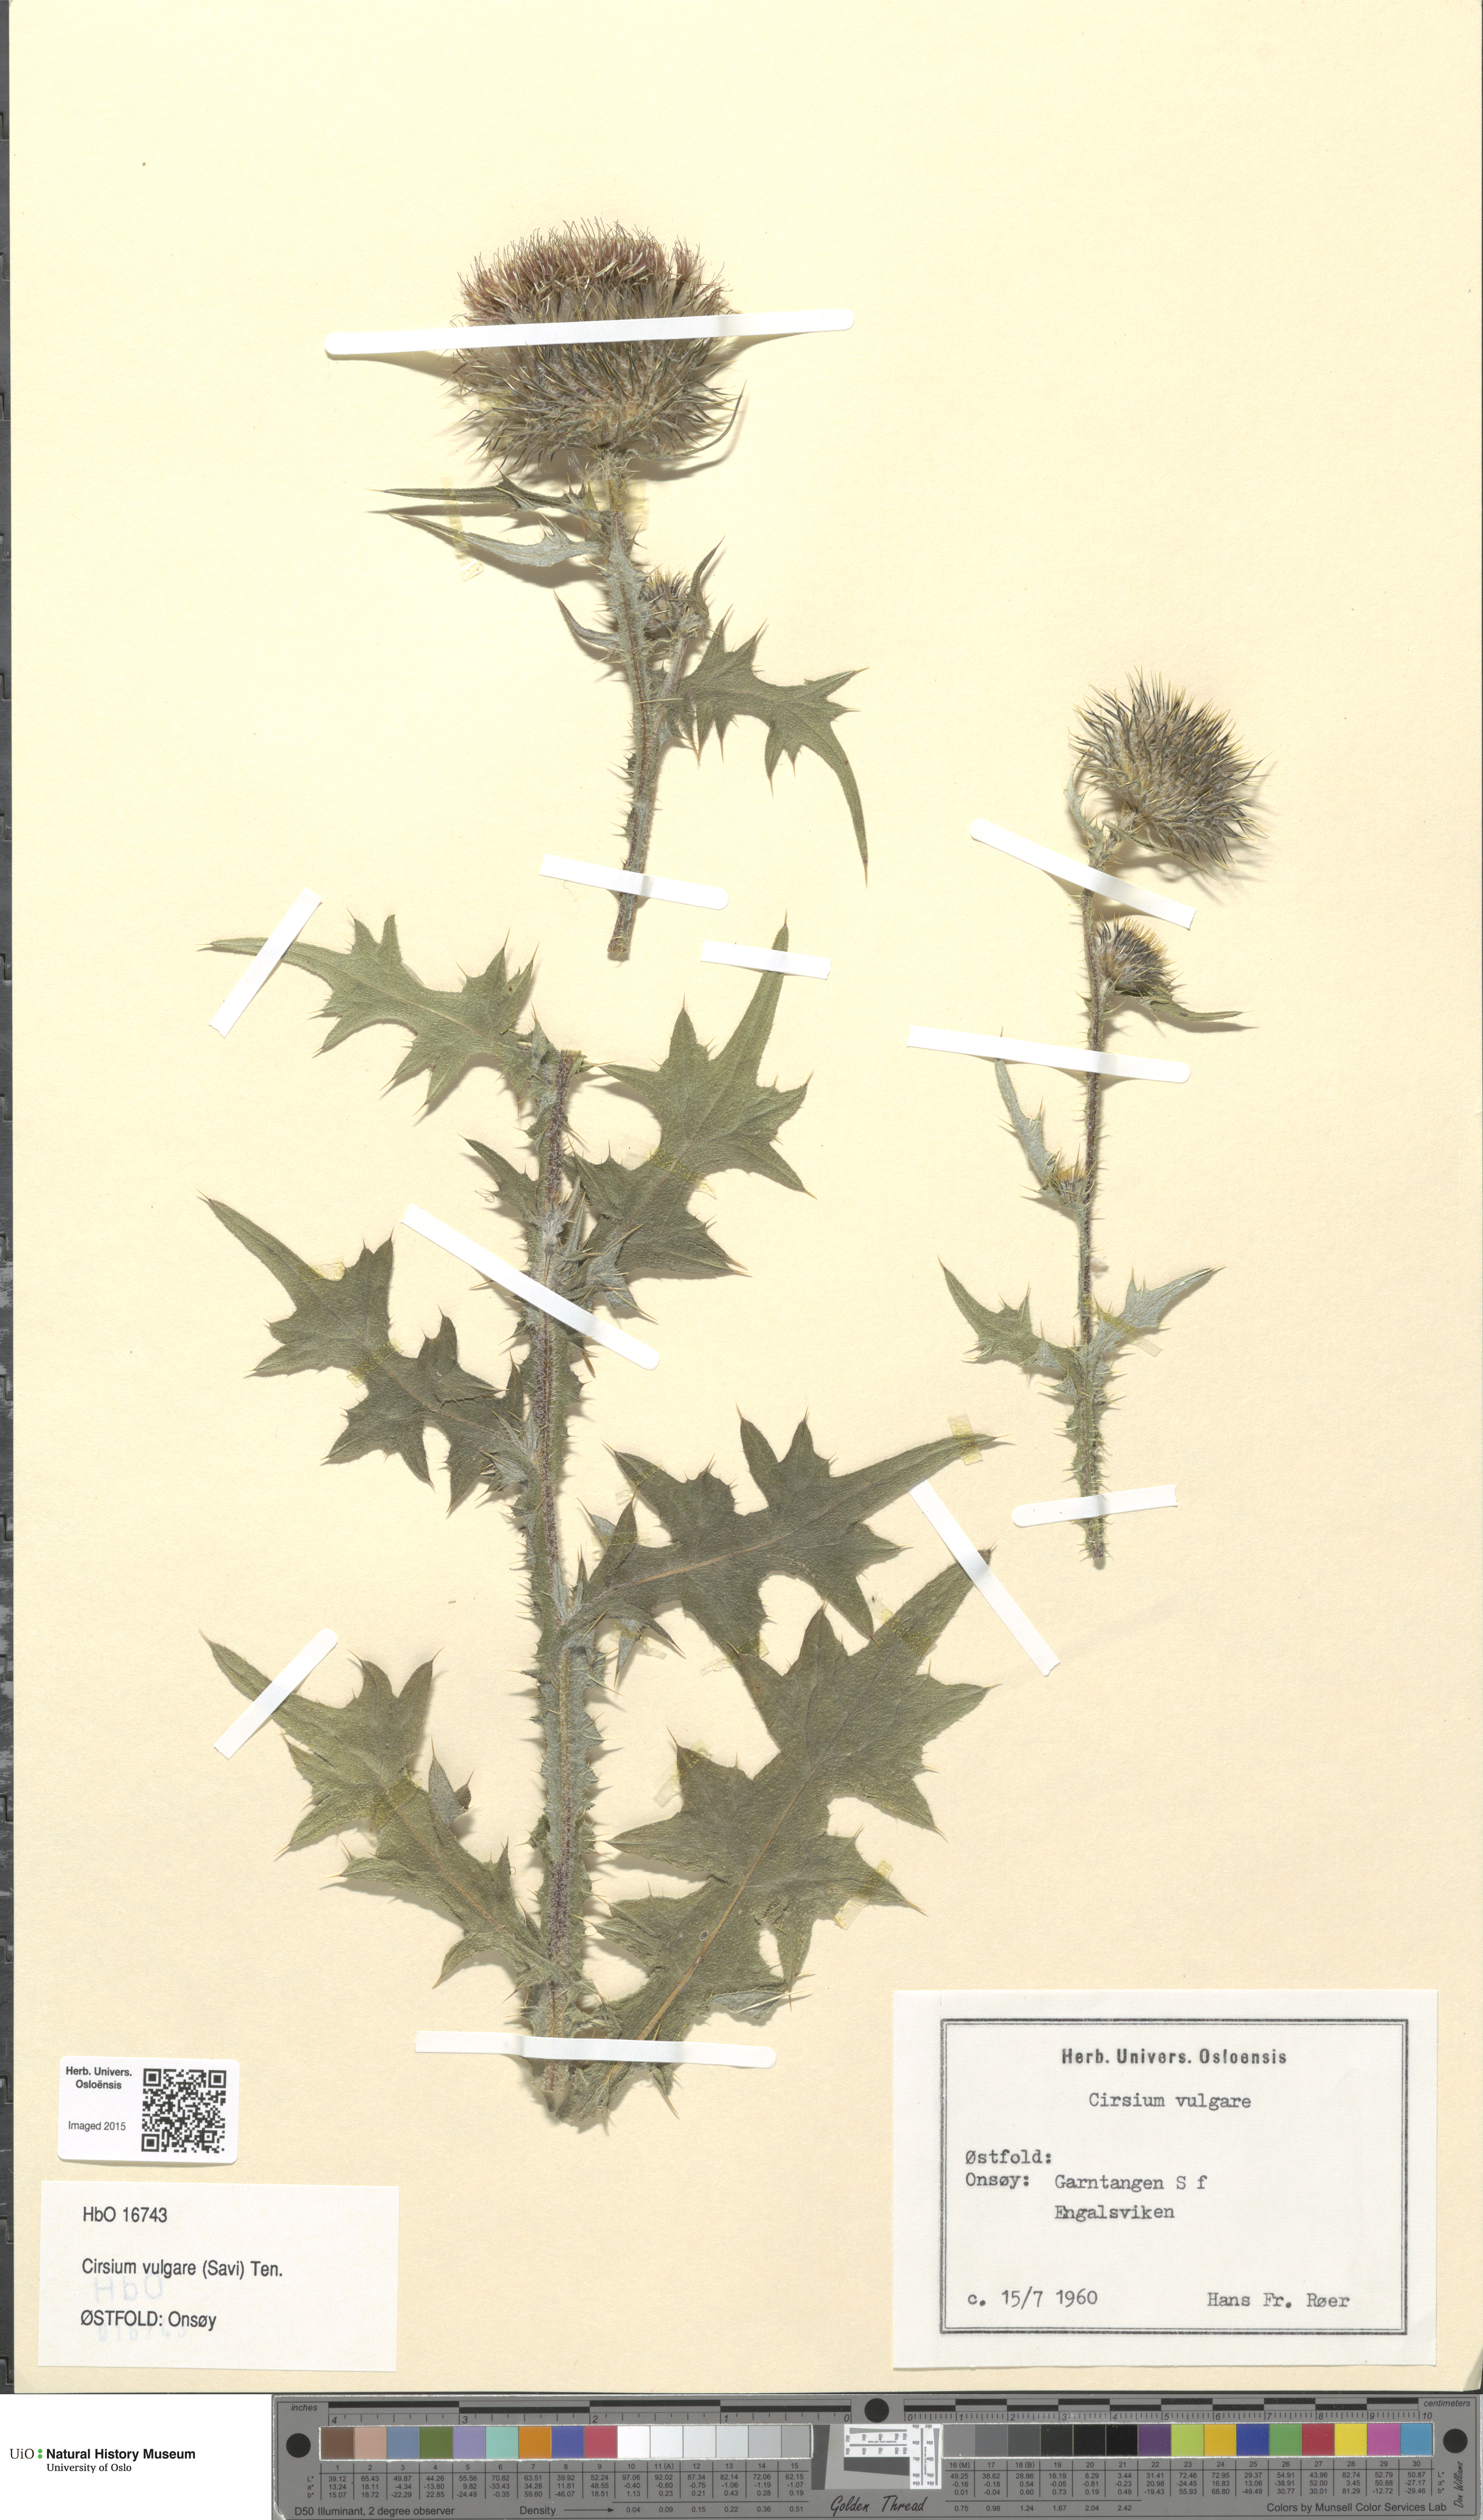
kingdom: Plantae
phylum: Tracheophyta
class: Magnoliopsida
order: Asterales
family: Asteraceae
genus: Cirsium
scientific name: Cirsium vulgare
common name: Bull thistle
